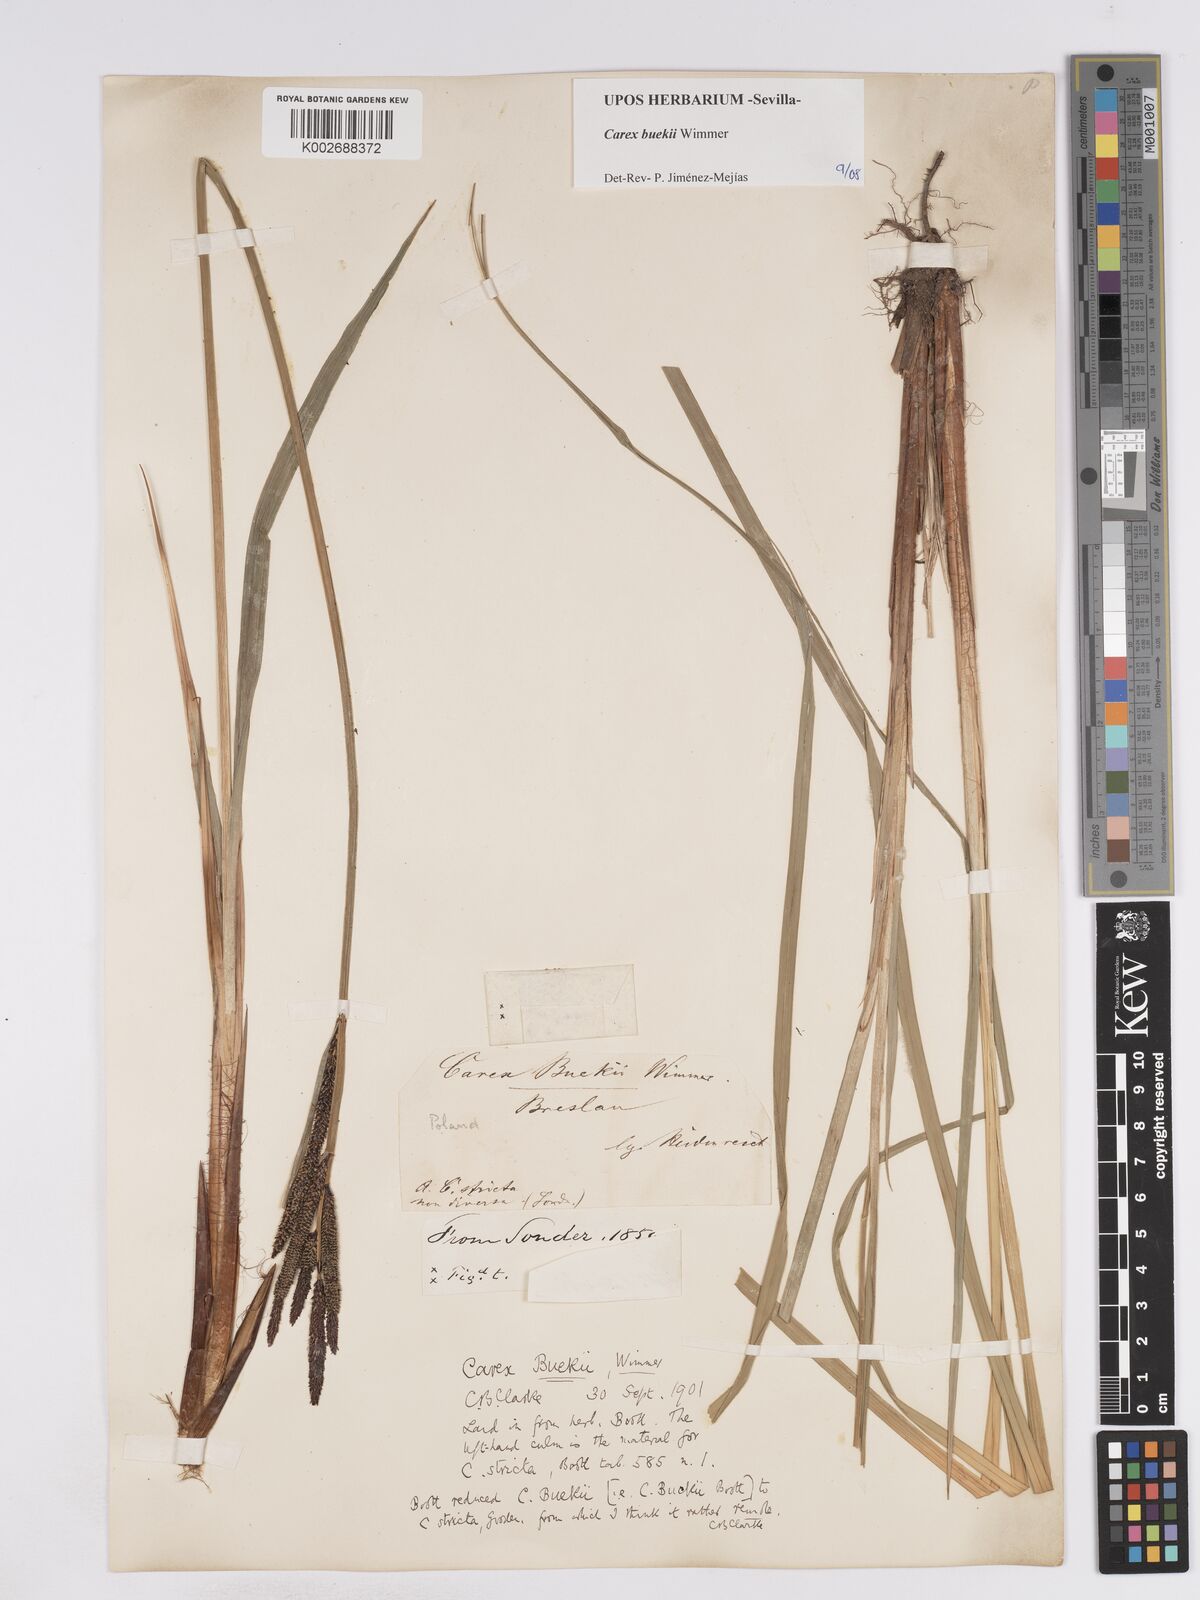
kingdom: Plantae
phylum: Tracheophyta
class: Liliopsida
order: Poales
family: Cyperaceae
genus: Carex
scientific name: Carex buekii
